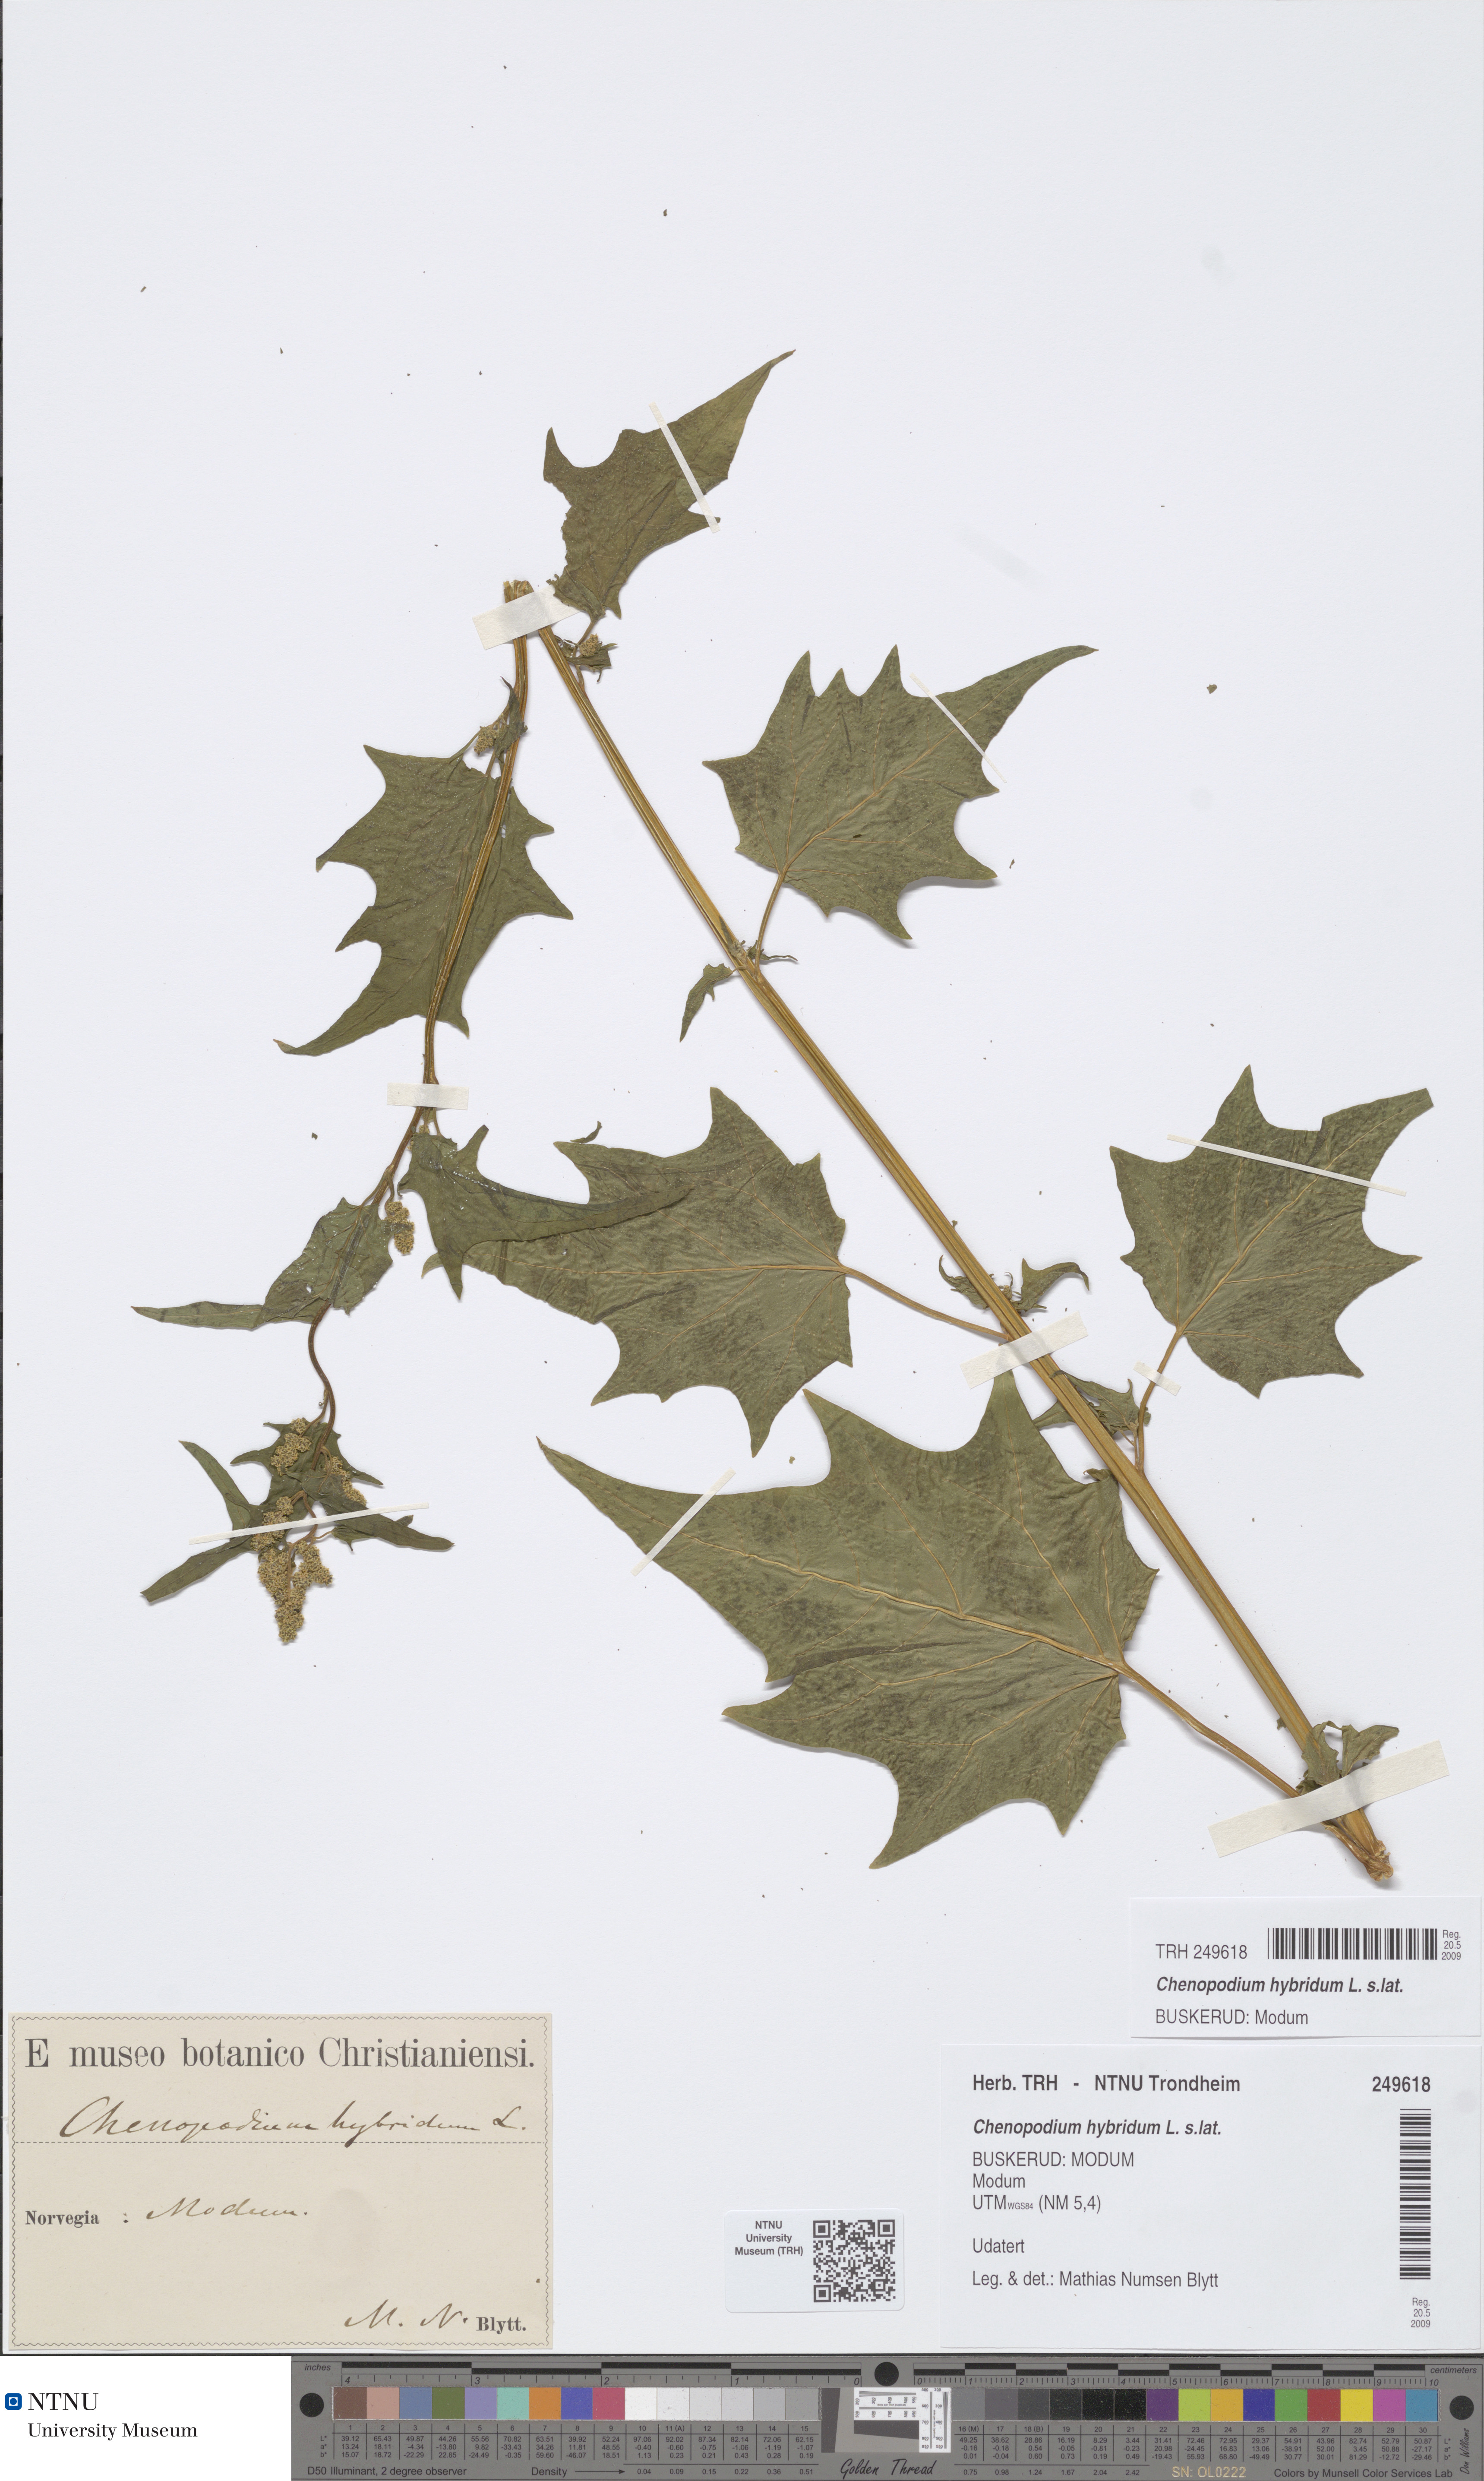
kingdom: Plantae
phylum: Tracheophyta
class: Magnoliopsida
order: Caryophyllales
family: Amaranthaceae
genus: Chenopodiastrum
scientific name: Chenopodiastrum hybridum
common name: Mapleleaf goosefoot
